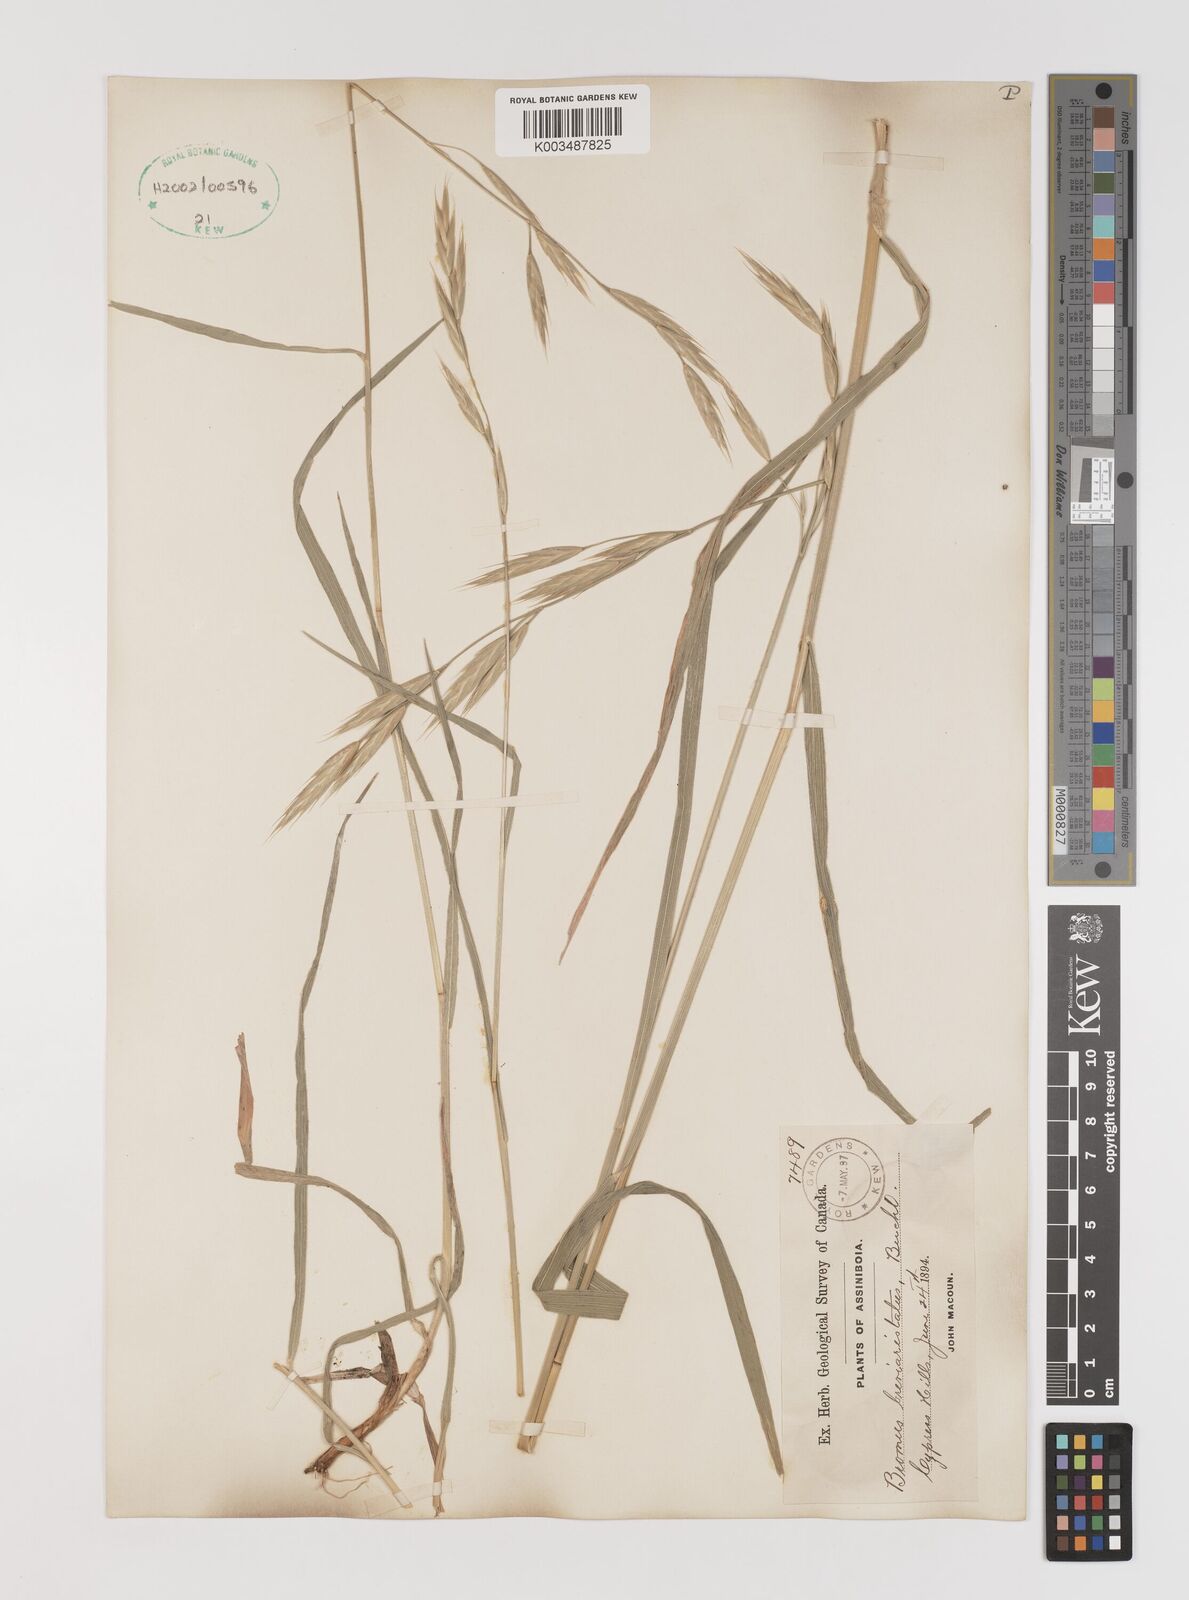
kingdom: Plantae
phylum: Tracheophyta
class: Liliopsida
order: Poales
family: Poaceae
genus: Bromus
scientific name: Bromus catharticus
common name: Rescuegrass
